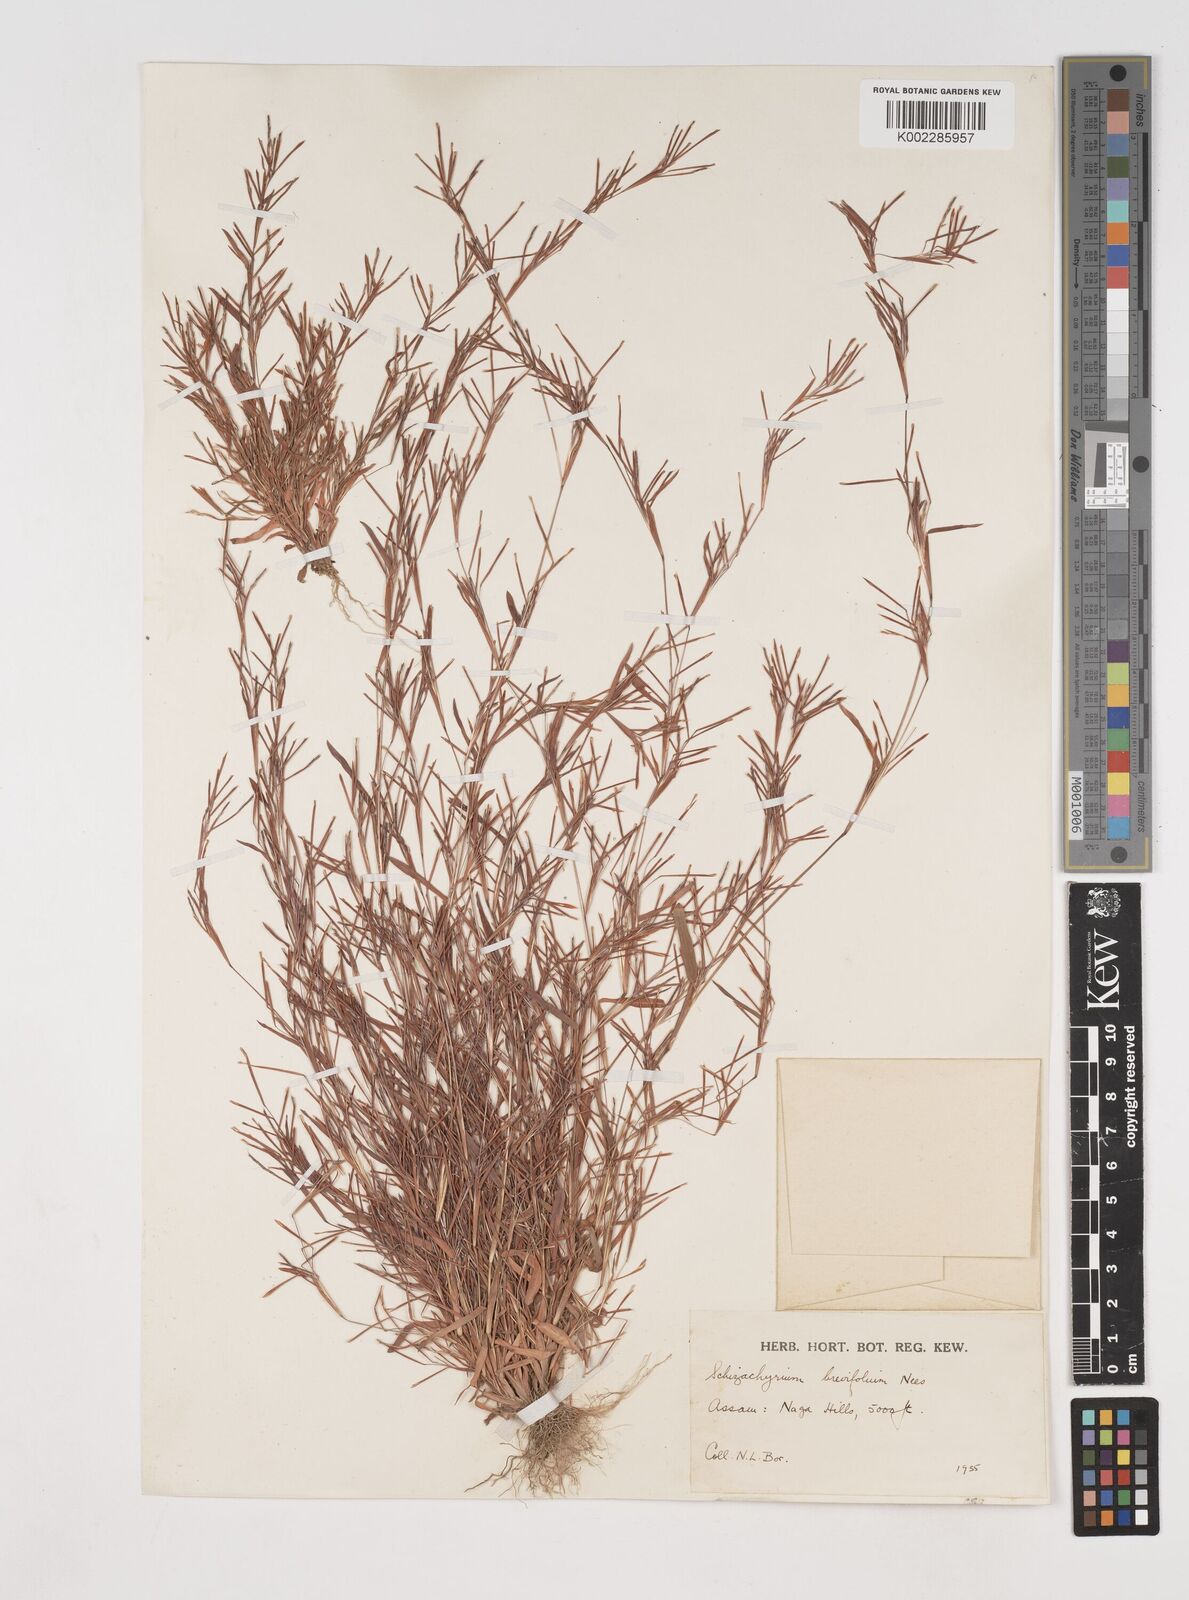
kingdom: Plantae
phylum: Tracheophyta
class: Liliopsida
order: Poales
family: Poaceae
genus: Schizachyrium
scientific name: Schizachyrium brevifolium
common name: Serillo dulce
